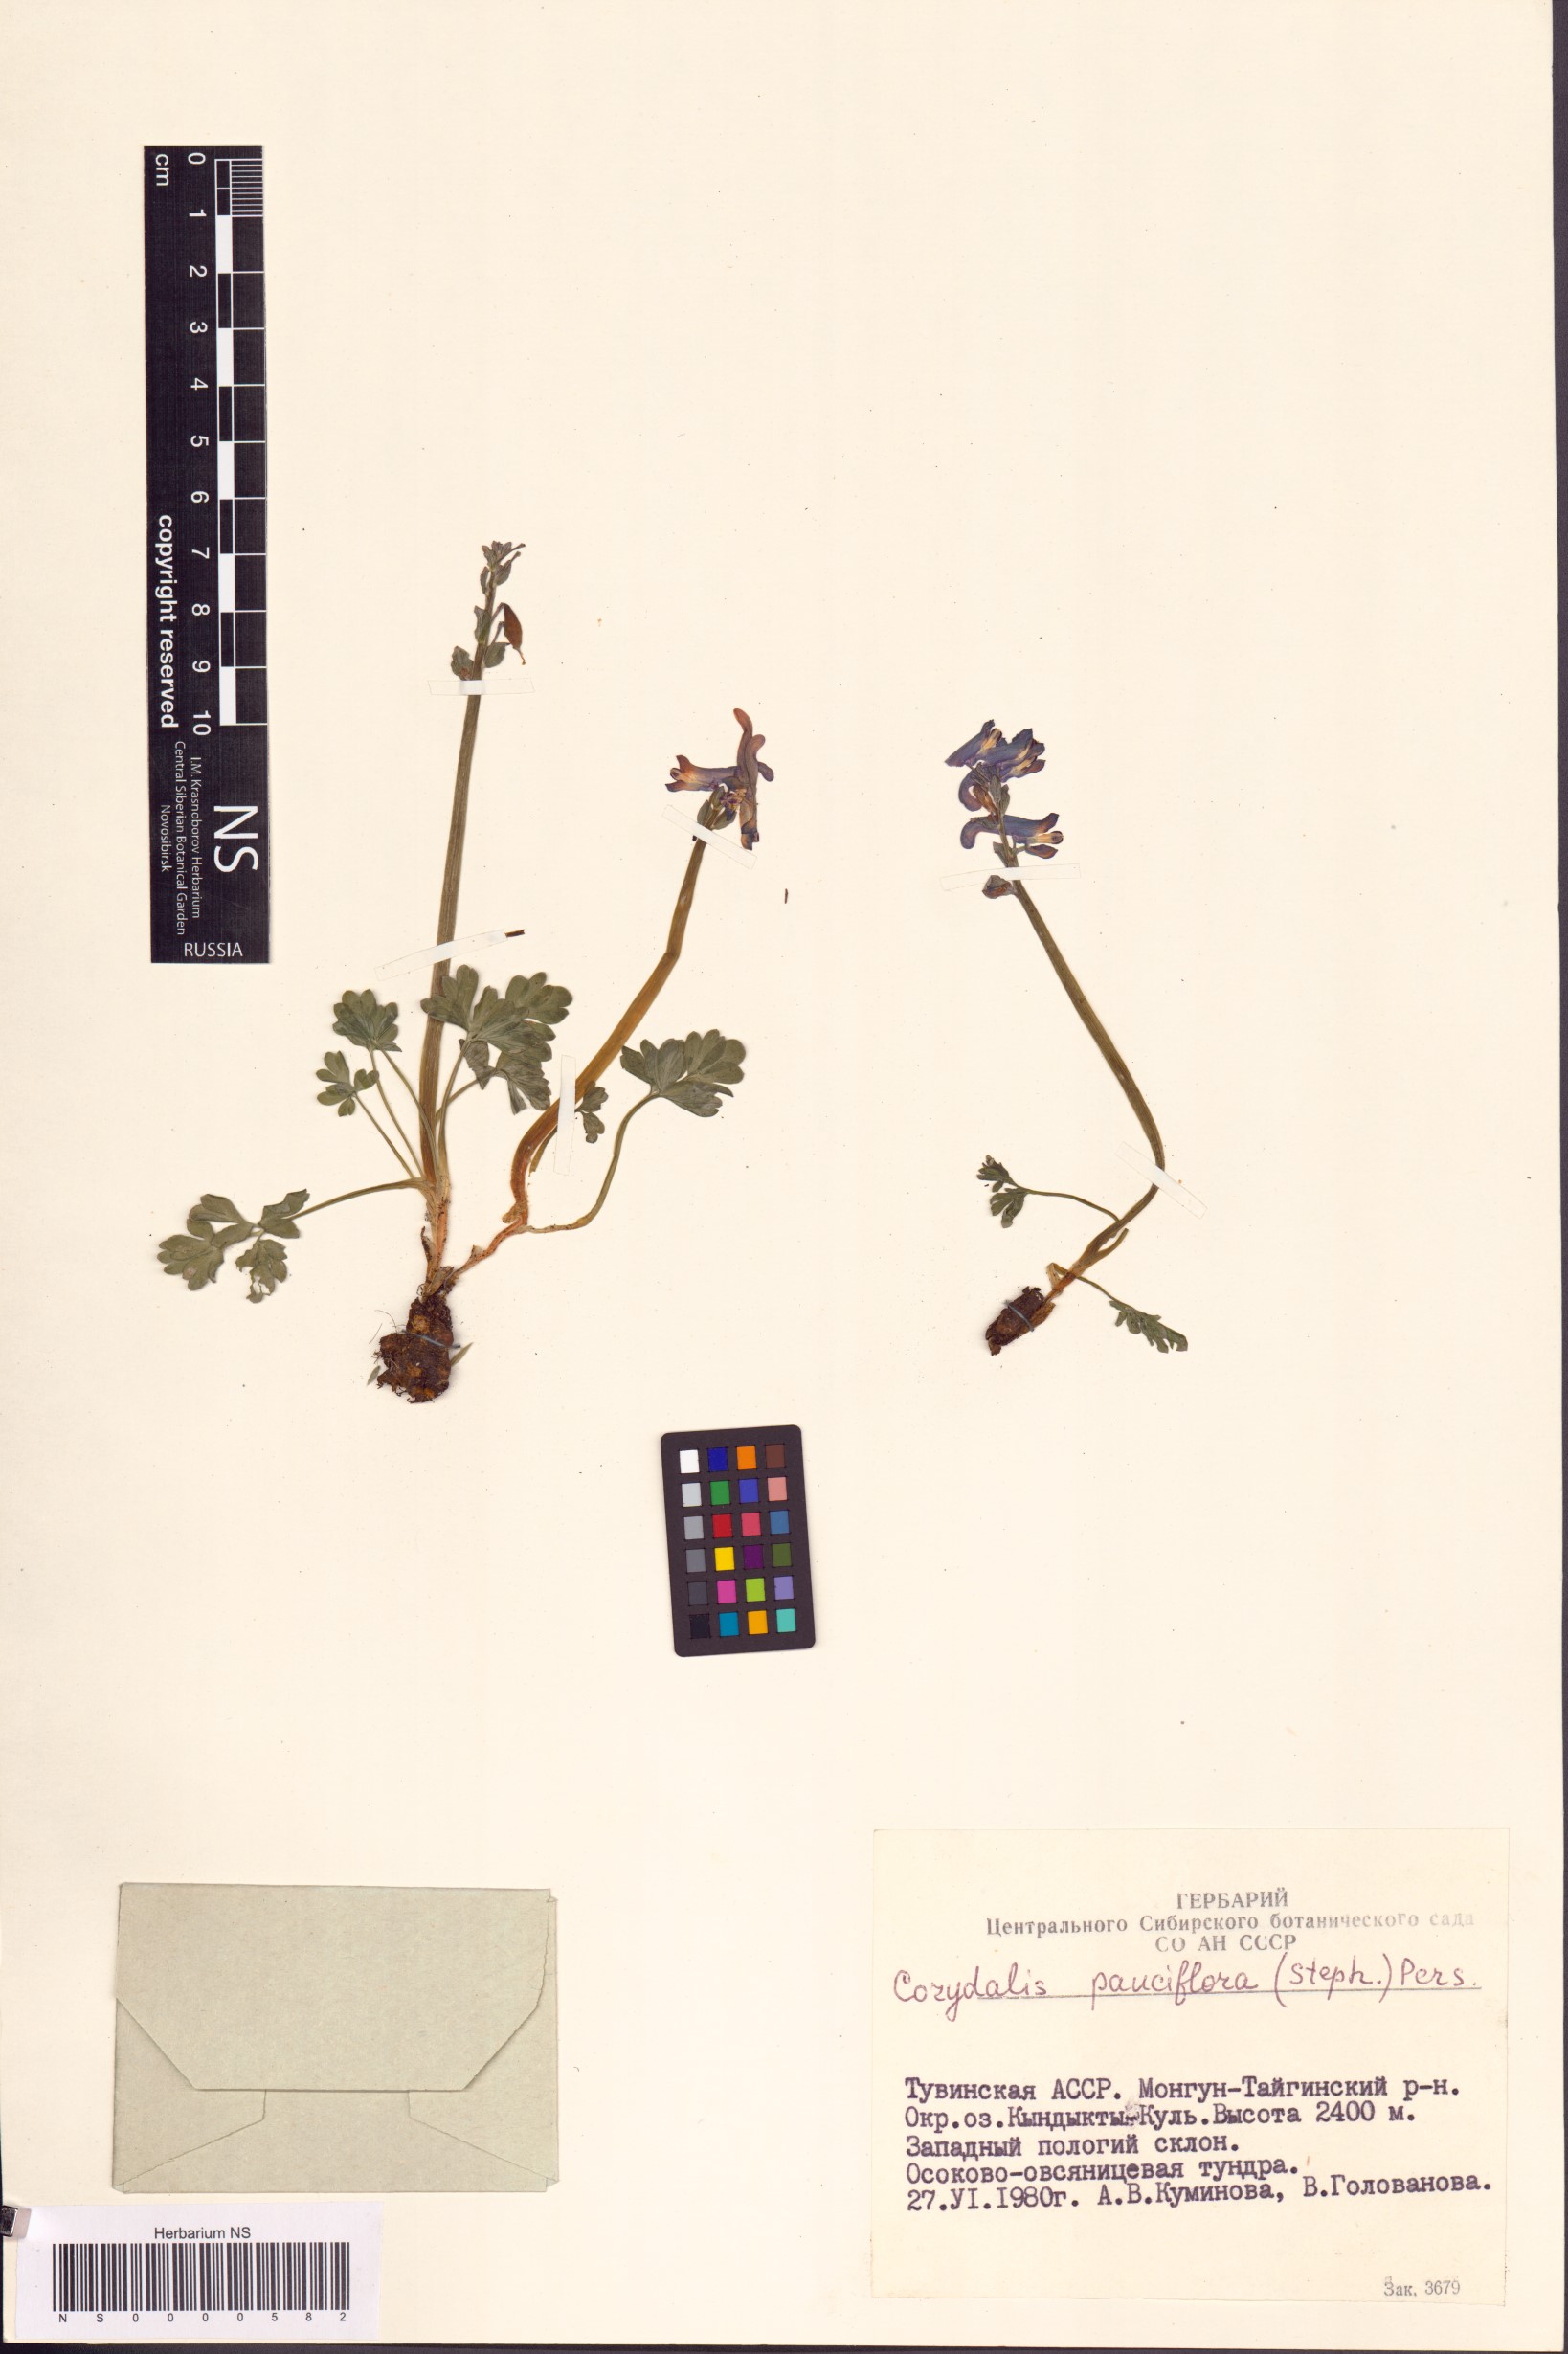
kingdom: Plantae
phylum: Tracheophyta
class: Magnoliopsida
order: Ranunculales
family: Papaveraceae
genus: Corydalis
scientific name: Corydalis pauciflora
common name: Blue corydalis
